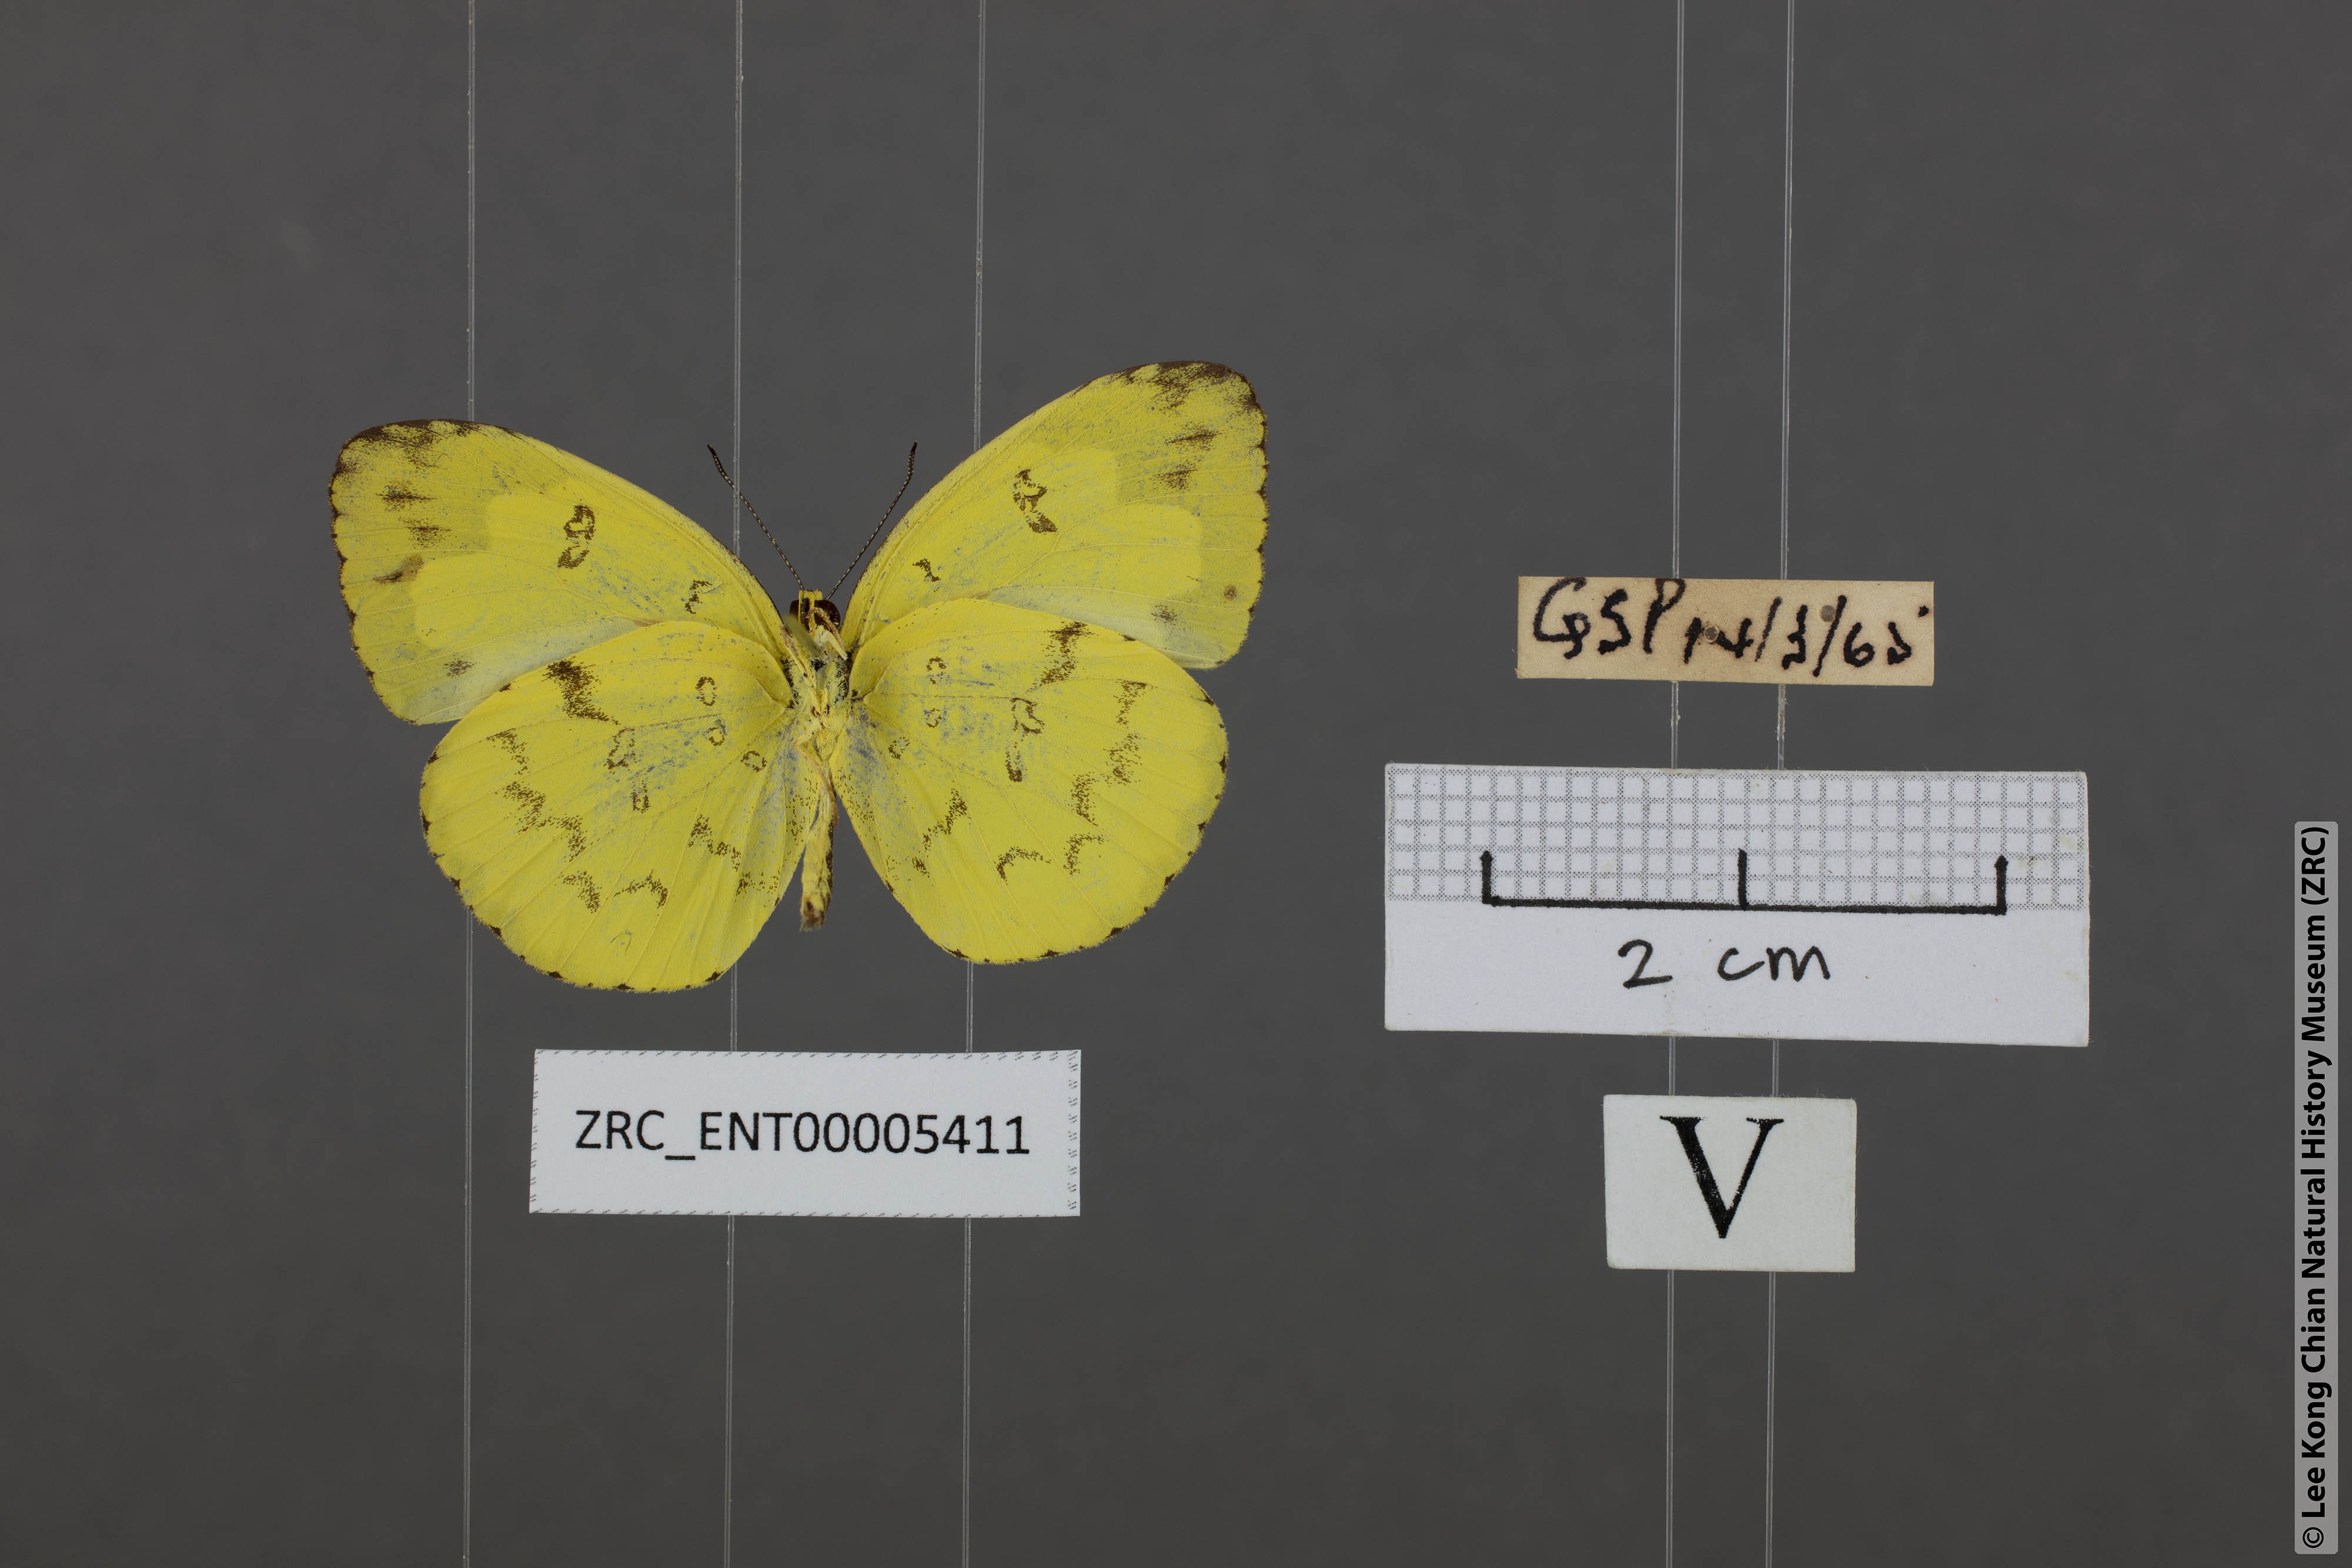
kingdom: Animalia
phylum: Arthropoda
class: Insecta
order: Lepidoptera
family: Pieridae
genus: Eurema
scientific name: Eurema andersoni
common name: One-spot yellow grass
